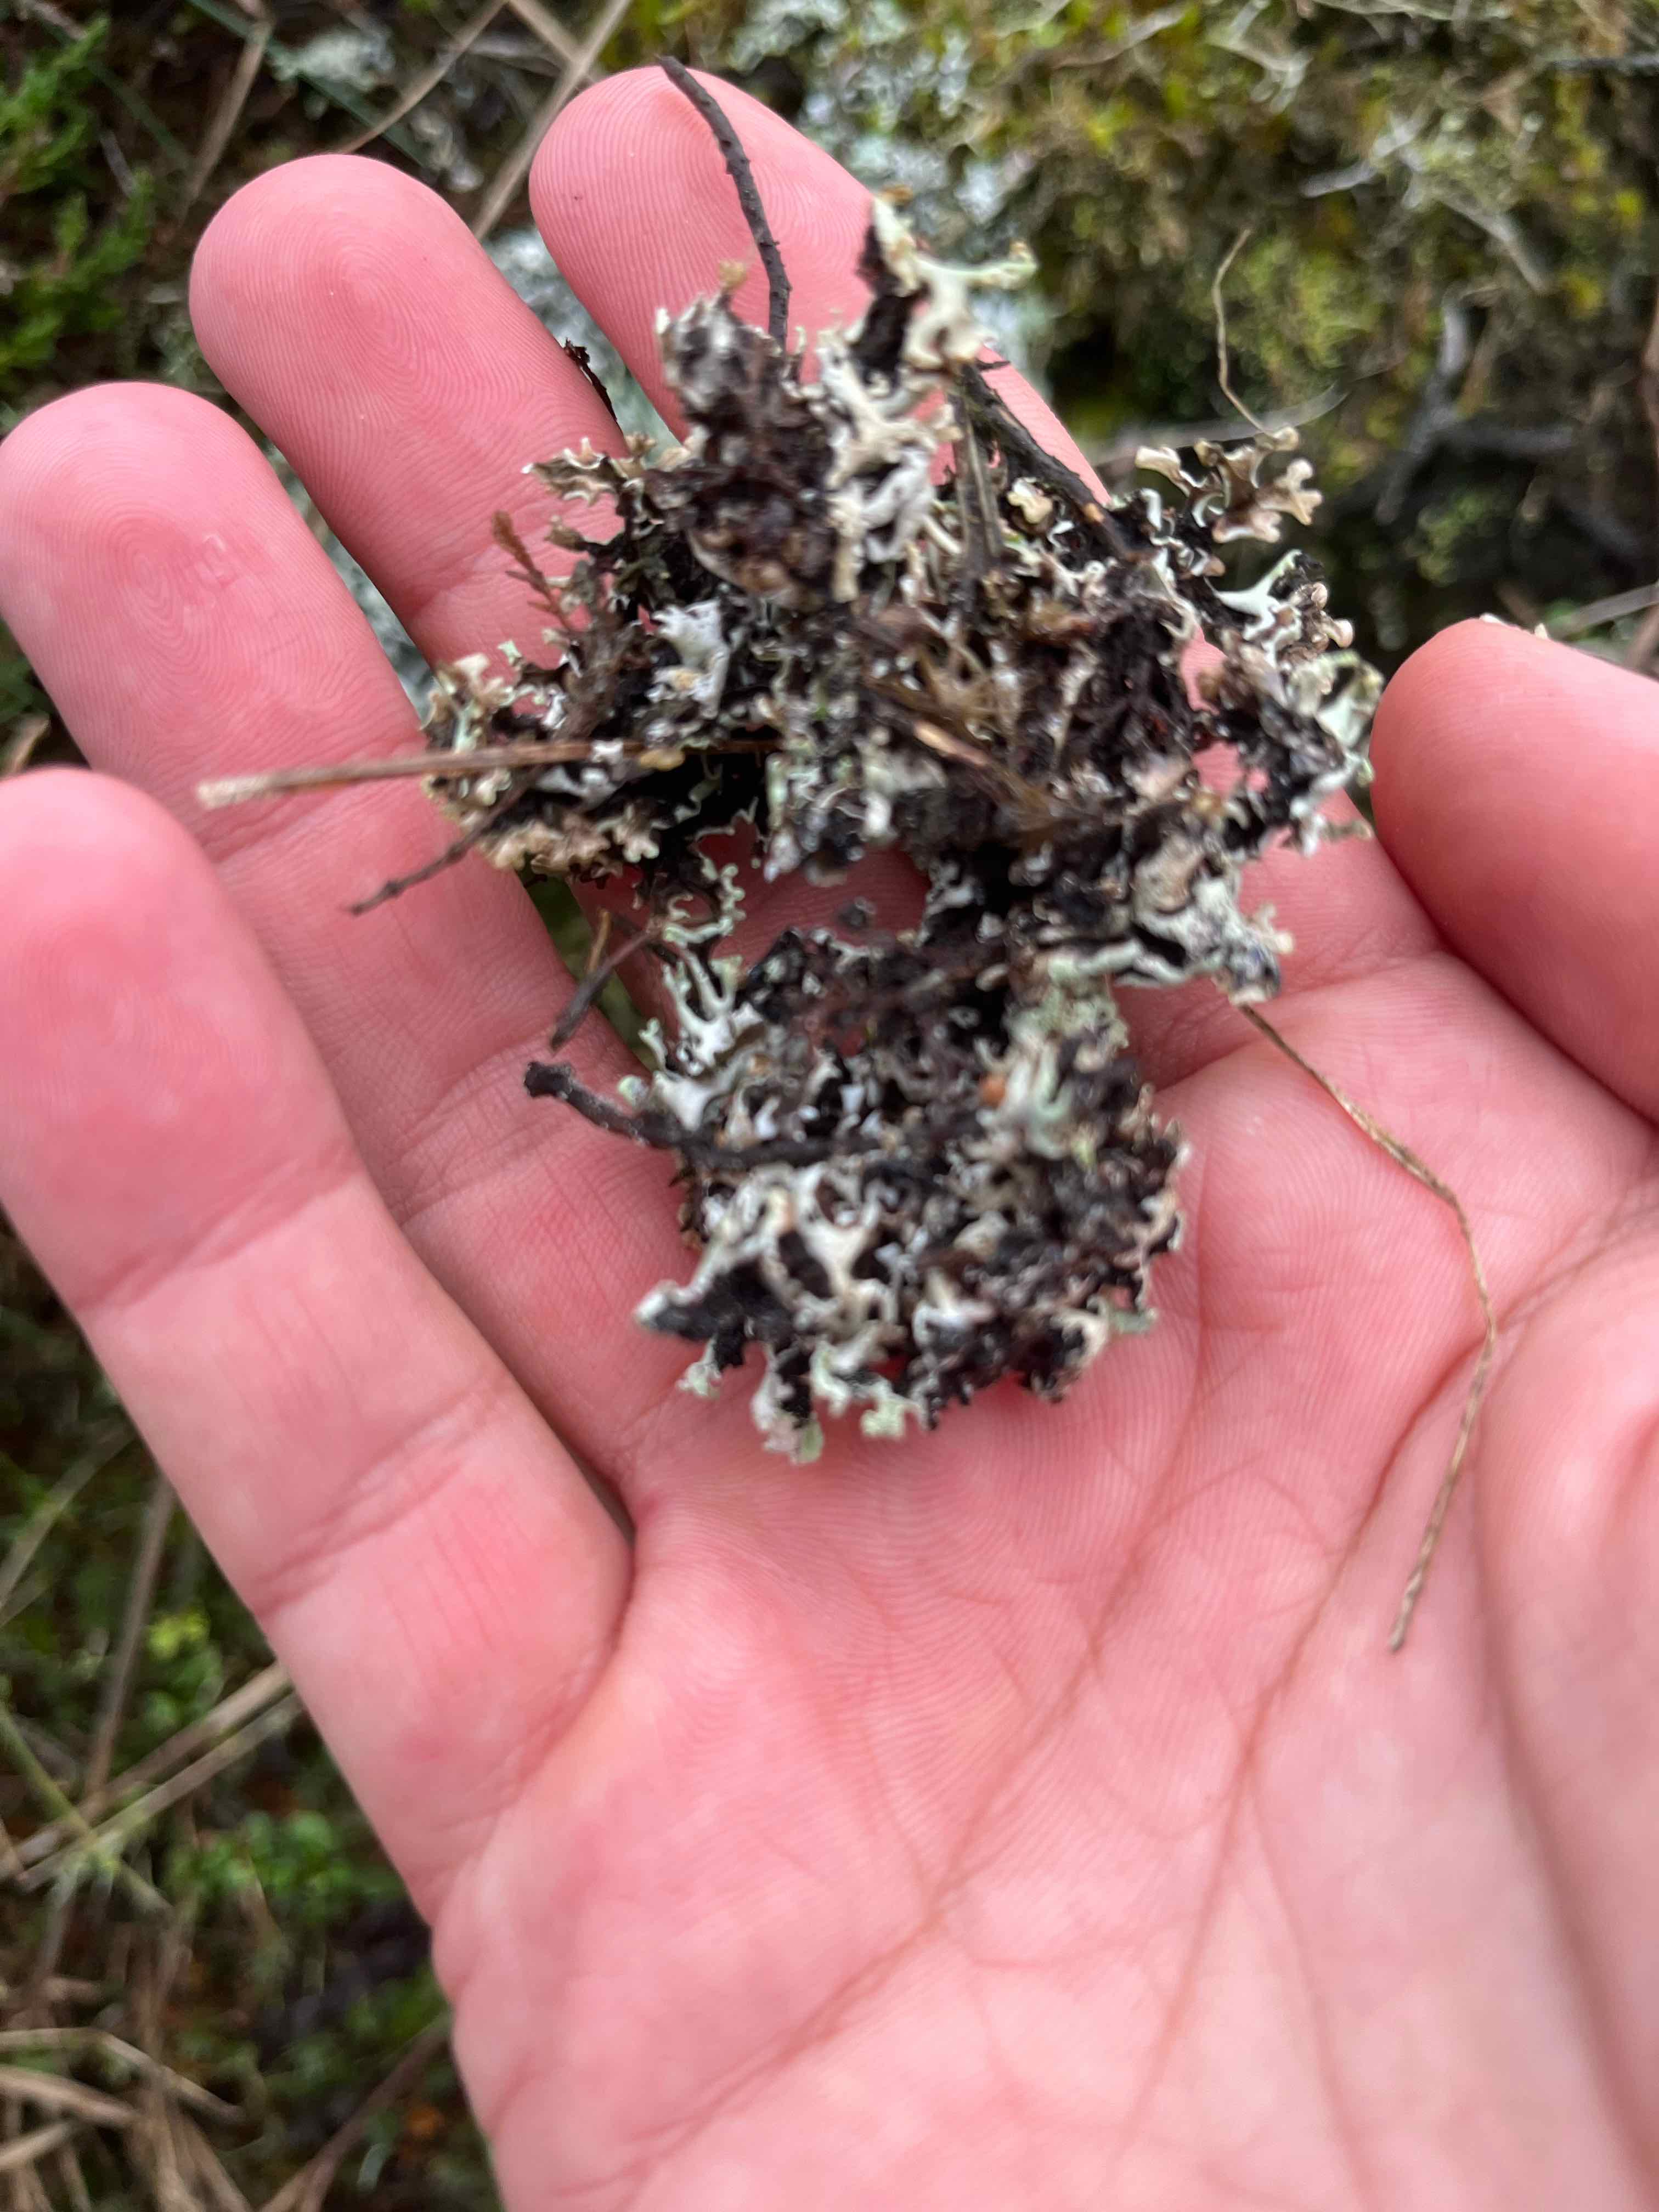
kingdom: Fungi
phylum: Ascomycota
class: Lecanoromycetes
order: Lecanorales
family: Parmeliaceae
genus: Hypogymnia
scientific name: Hypogymnia physodes
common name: almindelig kvistlav
